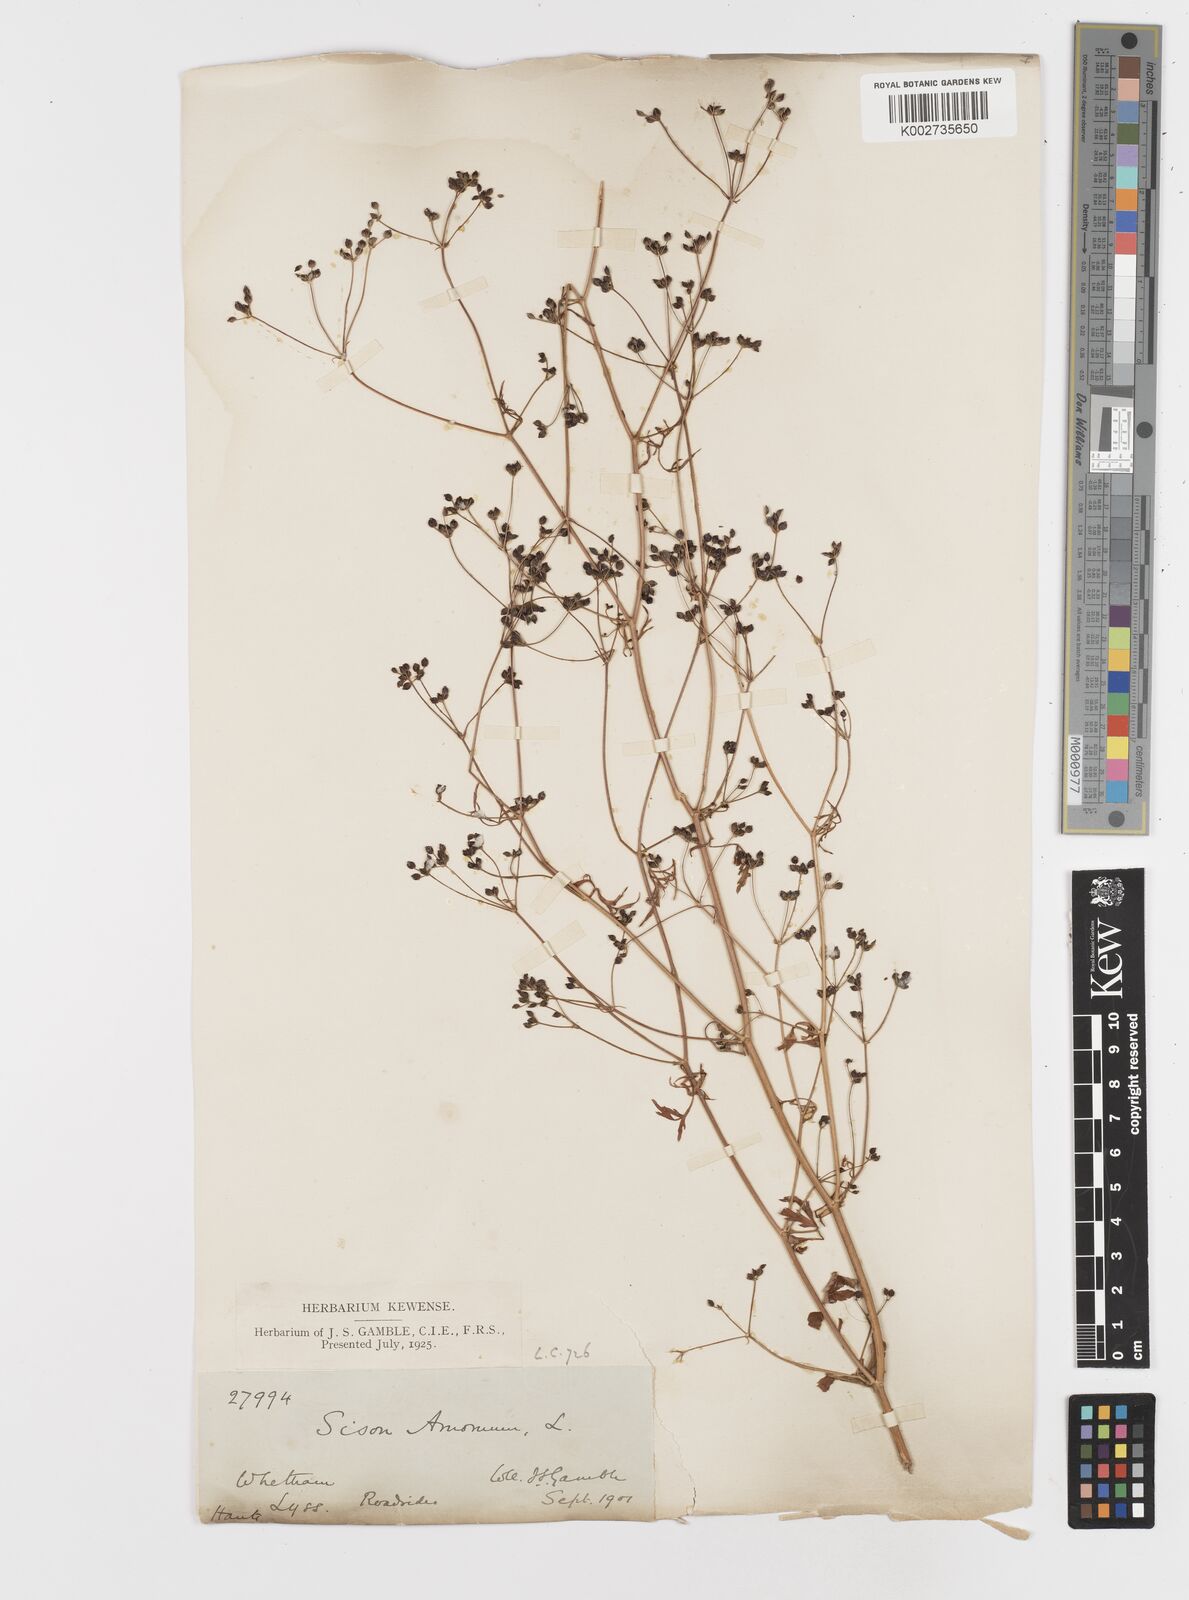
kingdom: Plantae
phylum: Tracheophyta
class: Magnoliopsida
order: Apiales
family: Apiaceae
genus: Sison
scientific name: Sison amomum
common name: Stone-parsley
